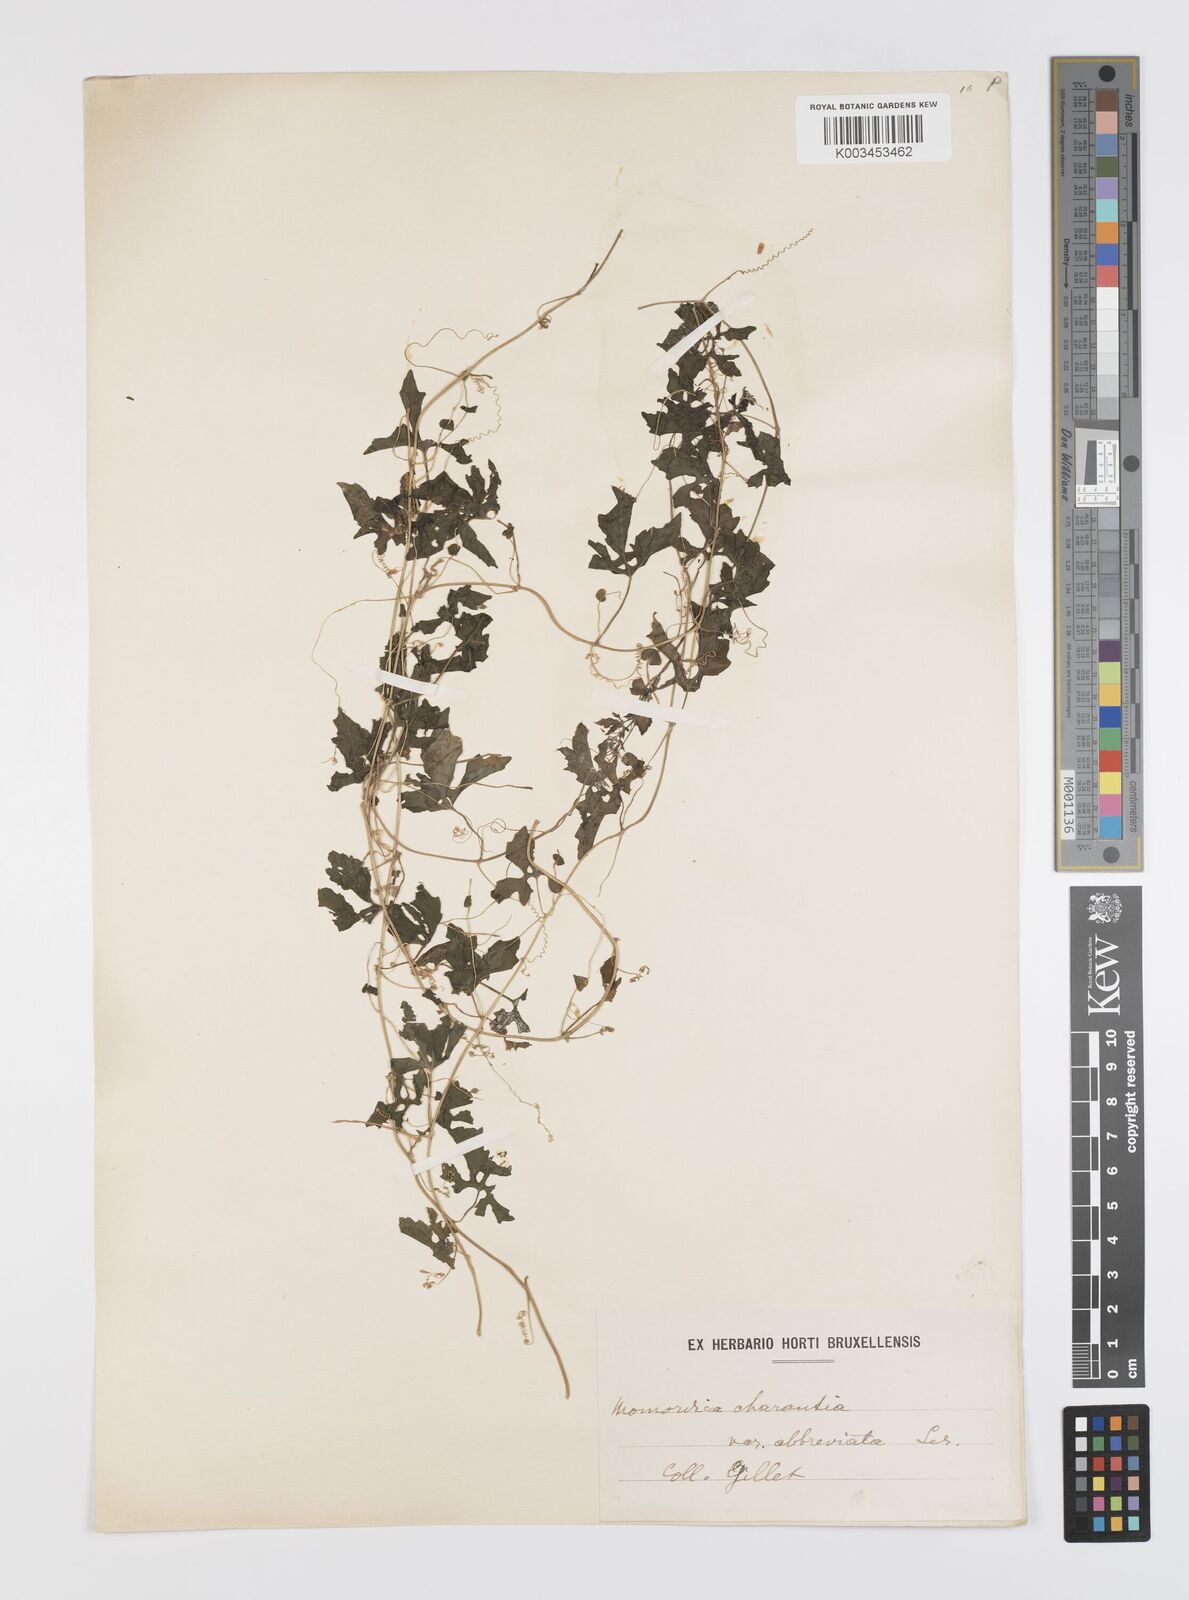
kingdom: Plantae
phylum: Tracheophyta
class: Magnoliopsida
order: Cucurbitales
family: Cucurbitaceae
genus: Momordica
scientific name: Momordica charantia
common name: Balsampear
